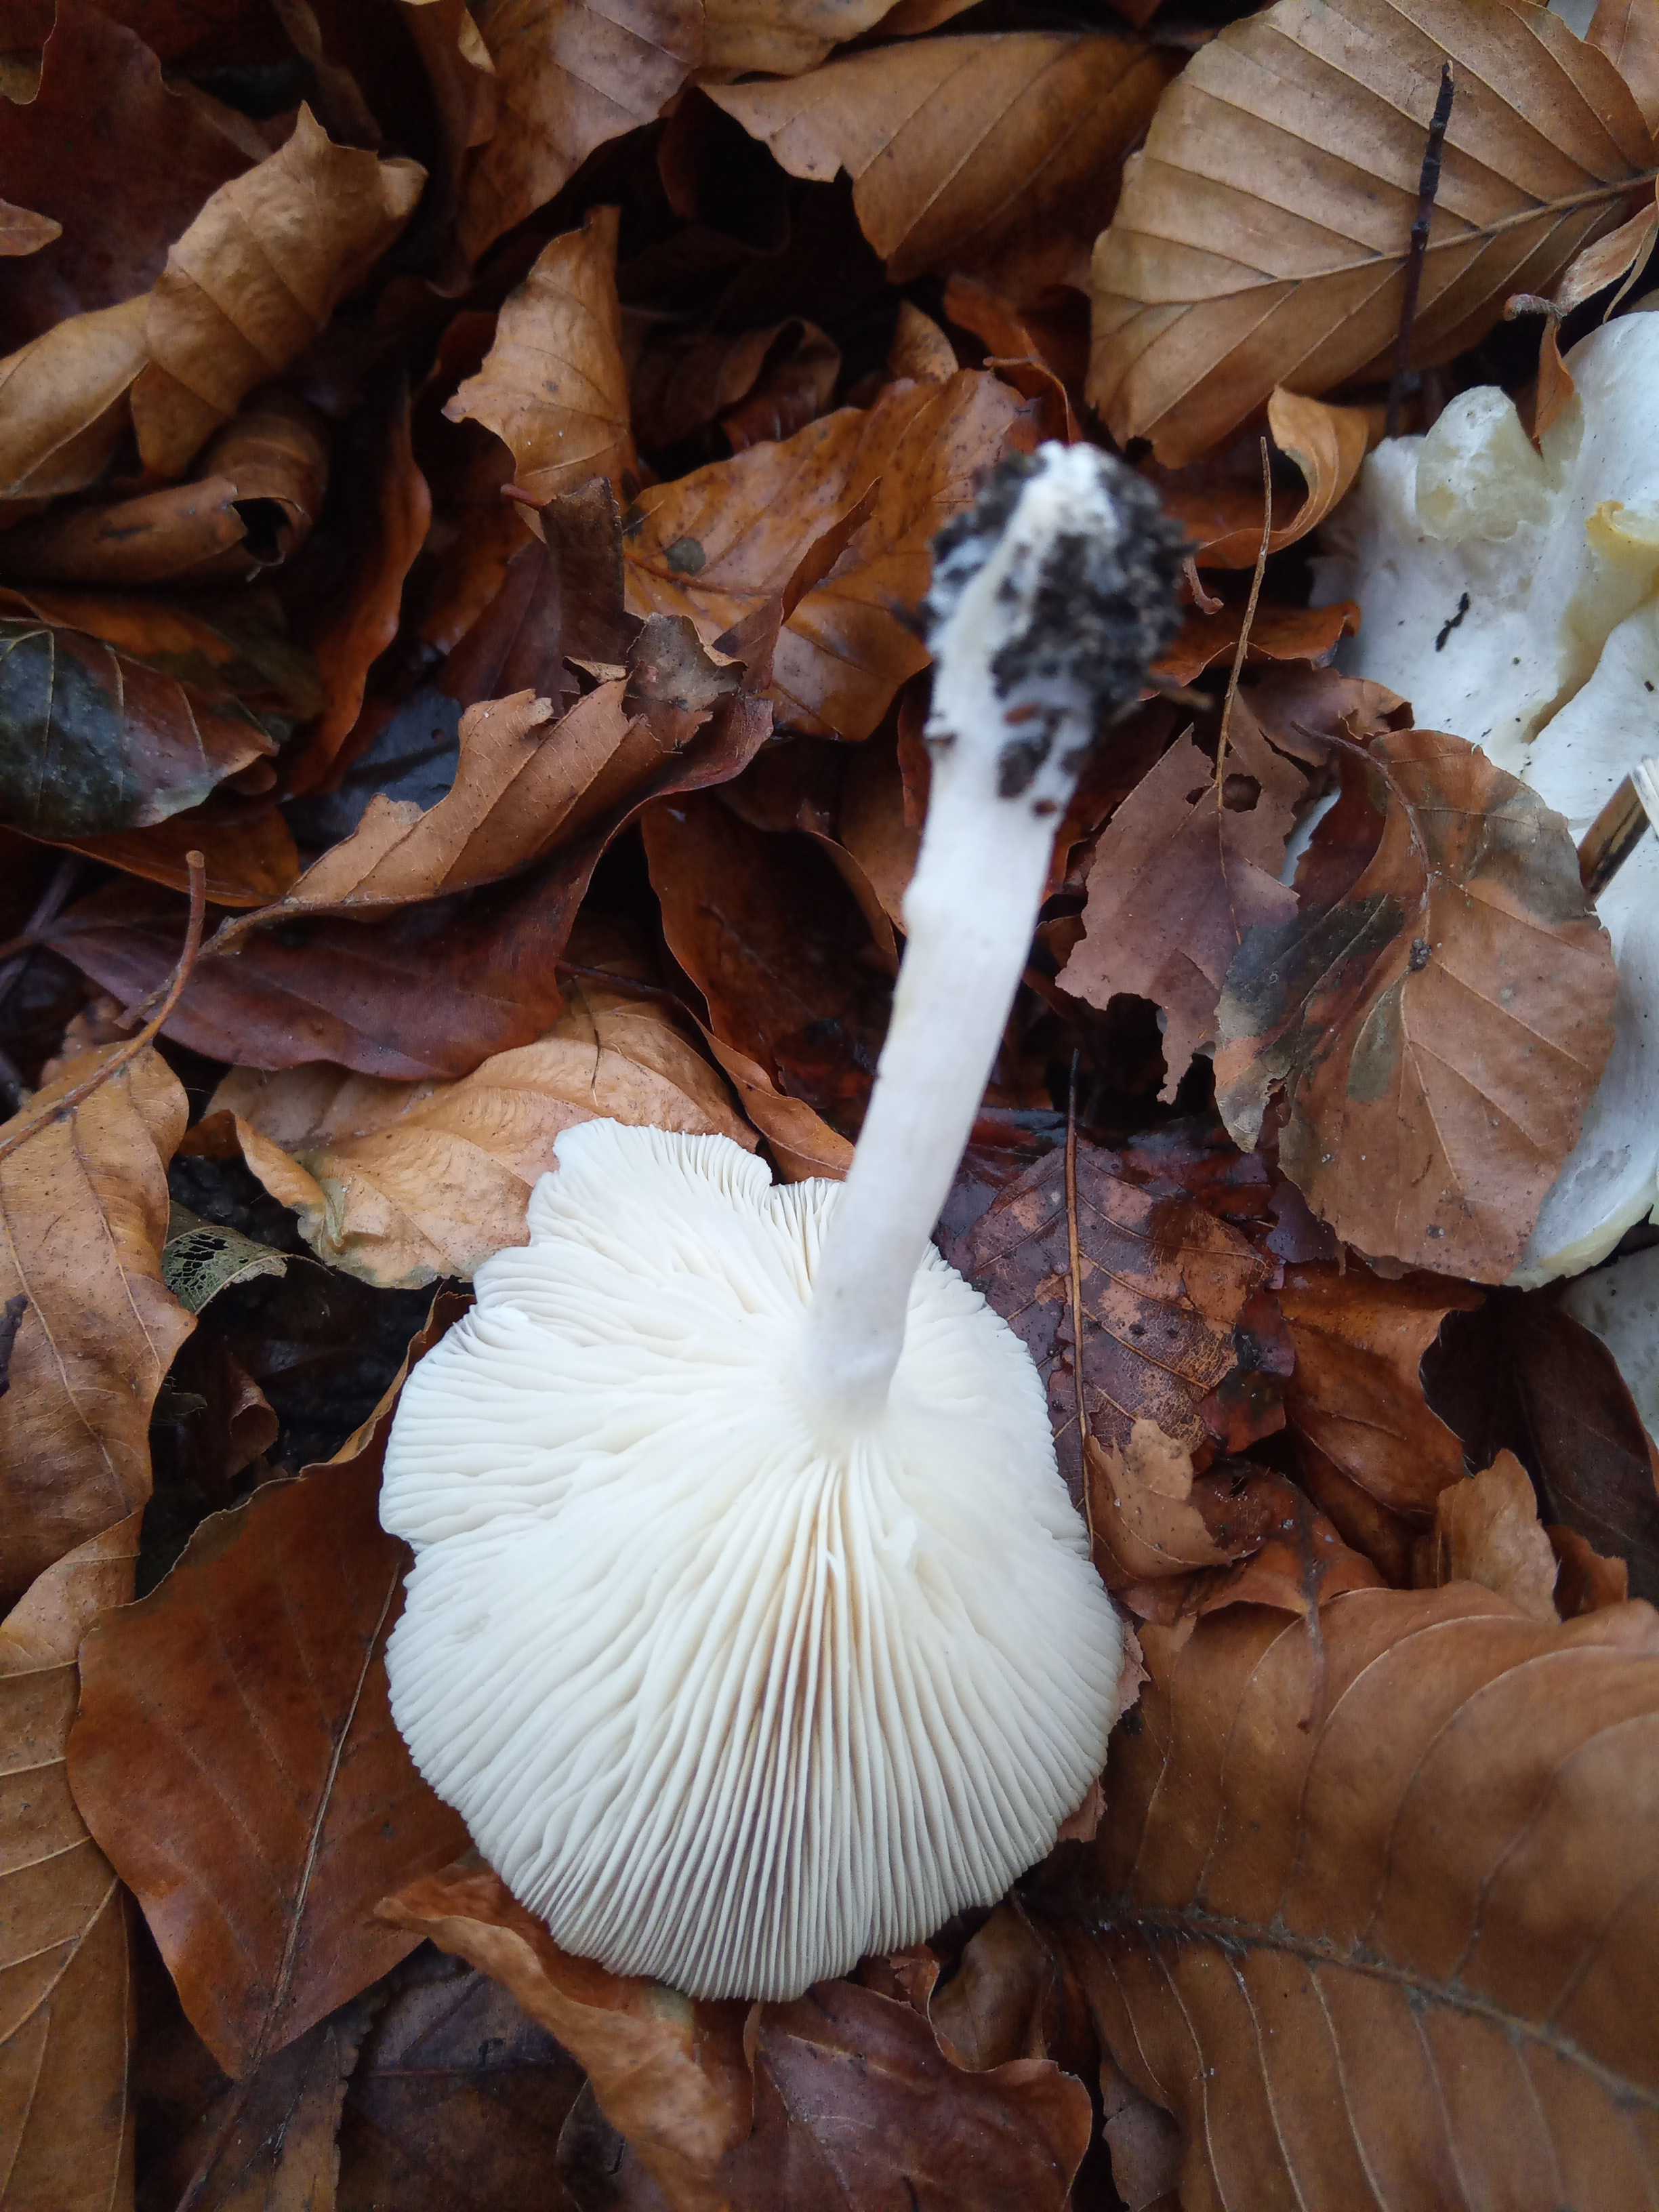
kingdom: Fungi
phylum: Basidiomycota
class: Agaricomycetes
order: Agaricales
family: Tricholomataceae
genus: Leucocybe
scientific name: Leucocybe connata
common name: knippe-tragthat
